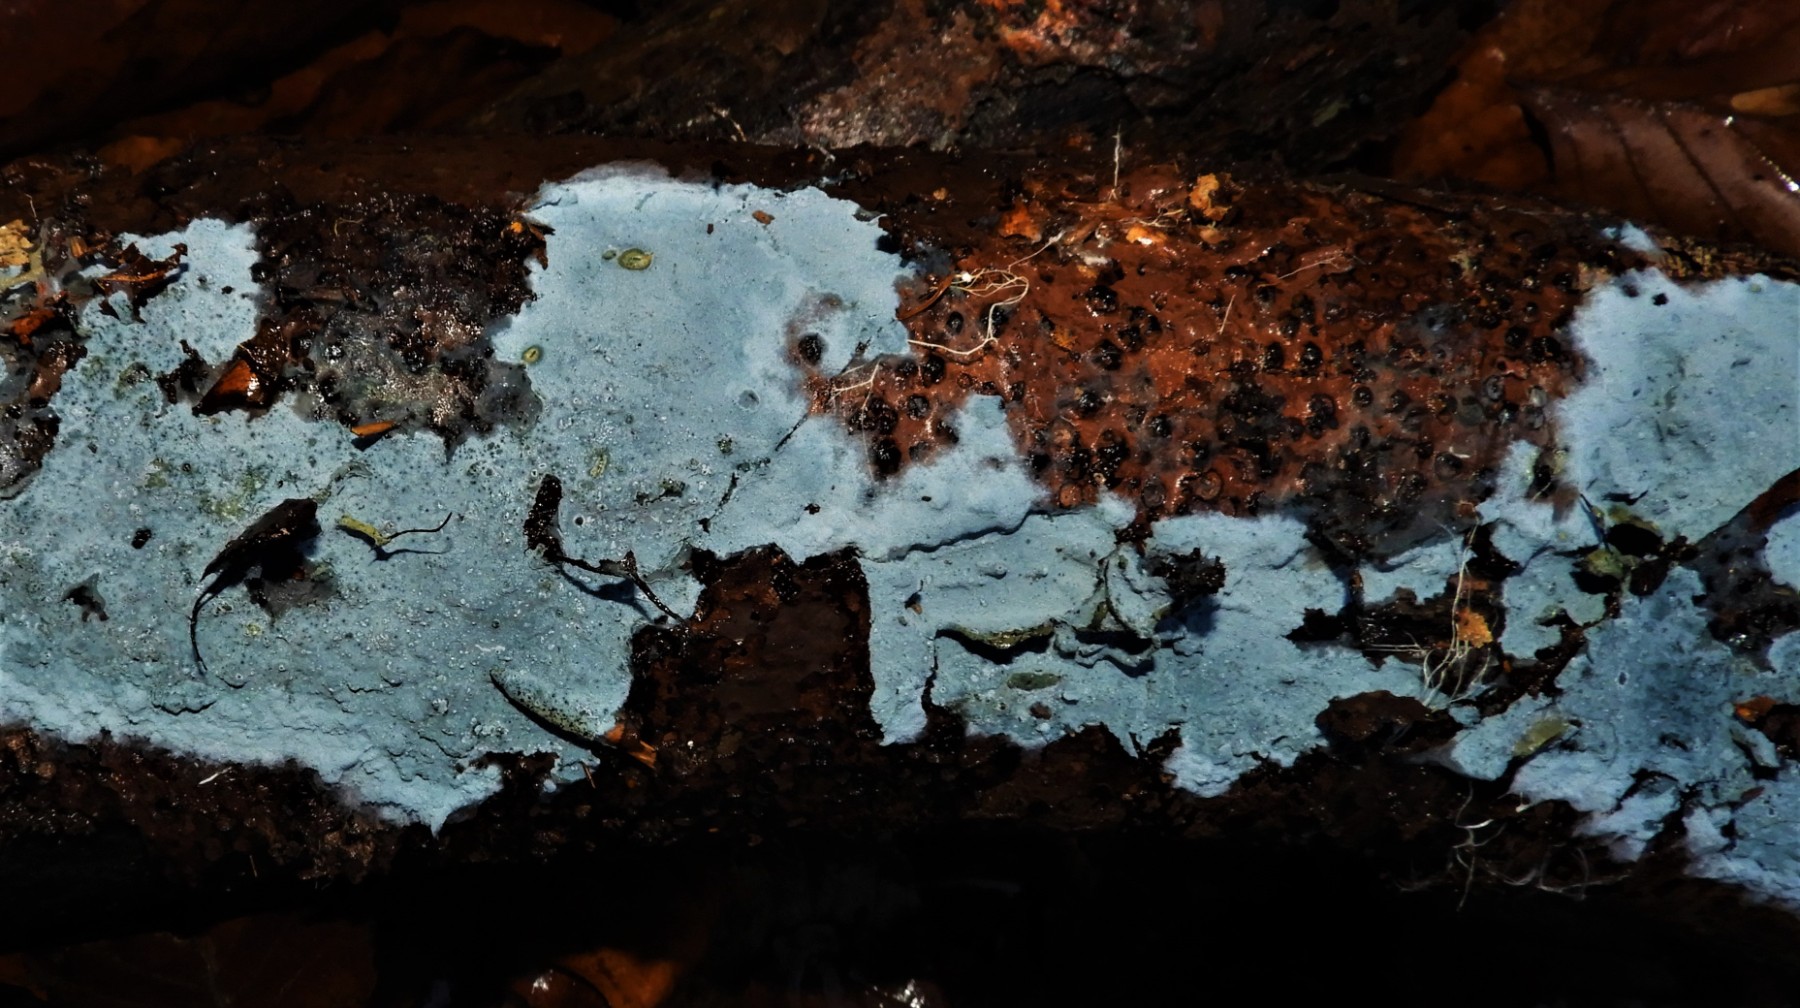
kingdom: Fungi
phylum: Basidiomycota
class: Agaricomycetes
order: Atheliales
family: Atheliaceae
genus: Byssocorticium
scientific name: Byssocorticium
